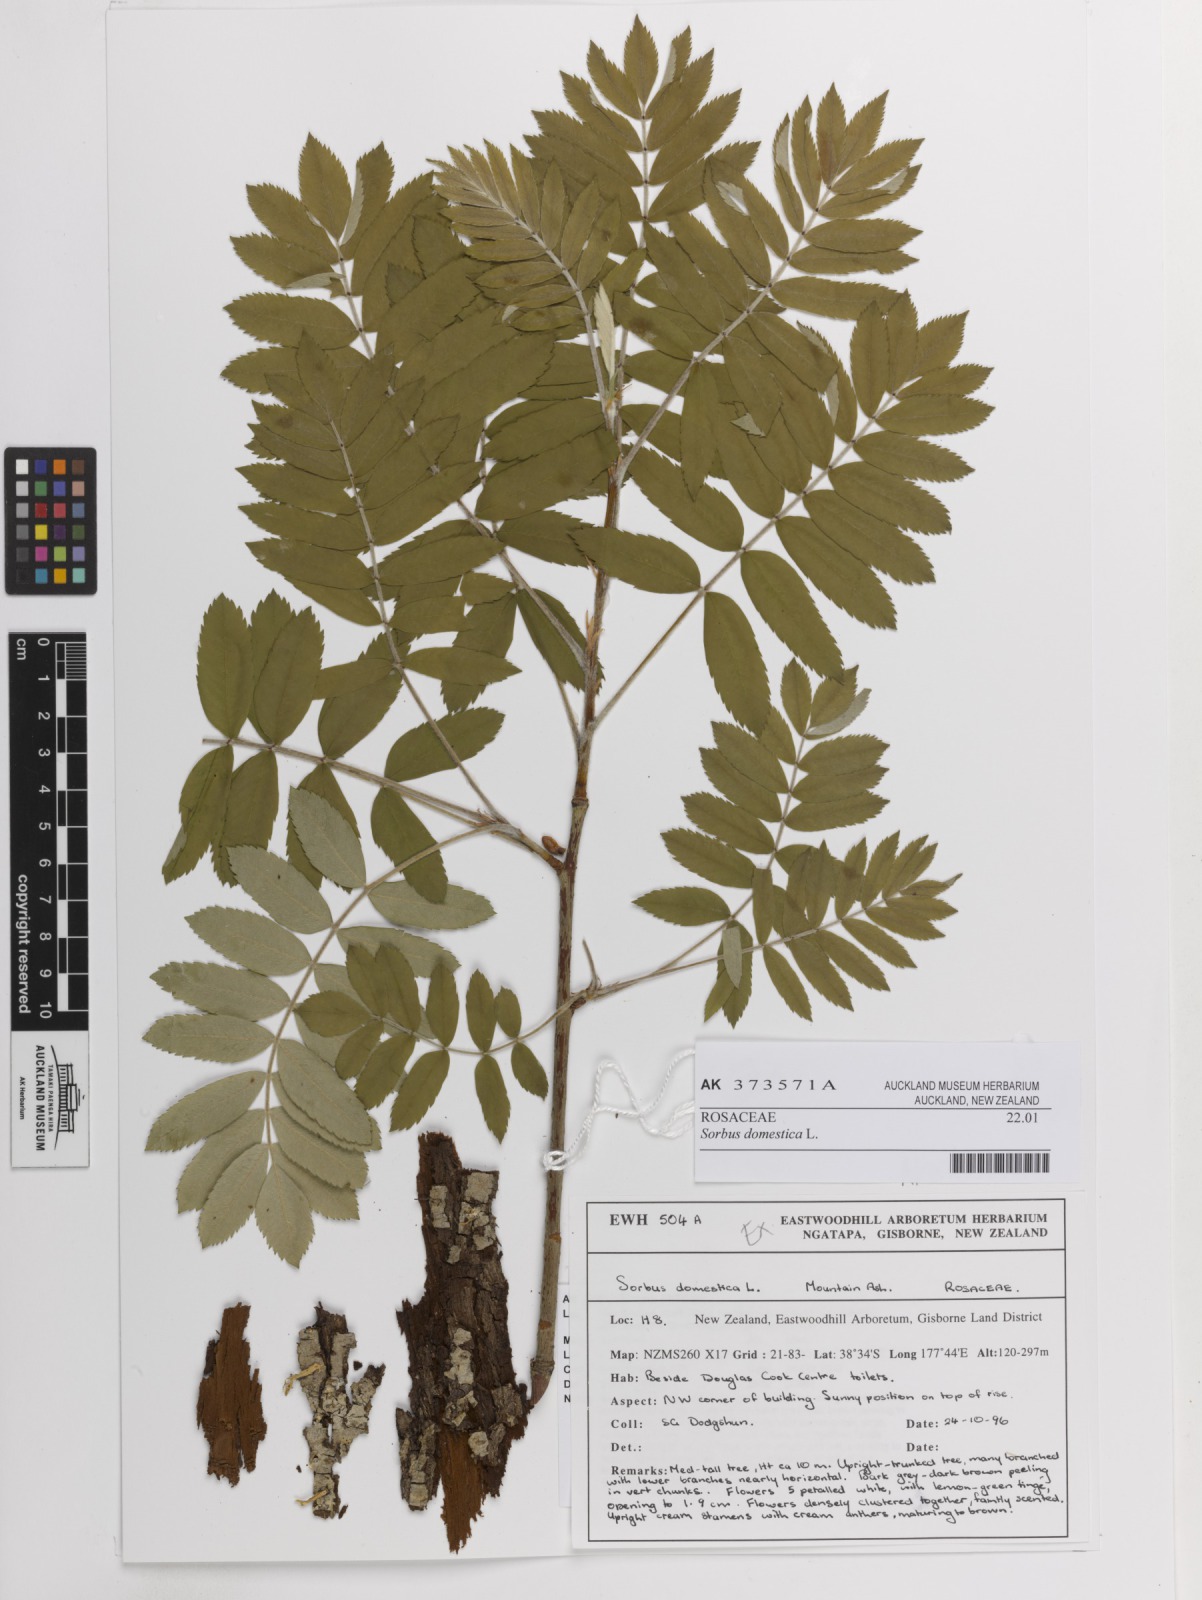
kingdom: Plantae
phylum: Tracheophyta
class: Magnoliopsida
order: Rosales
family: Rosaceae
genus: Cormus
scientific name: Cormus domestica
